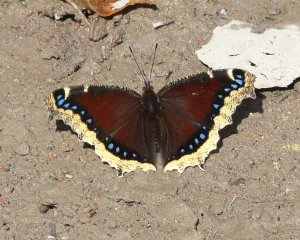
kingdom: Animalia
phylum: Arthropoda
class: Insecta
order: Lepidoptera
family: Nymphalidae
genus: Nymphalis
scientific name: Nymphalis antiopa
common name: Mourning Cloak
